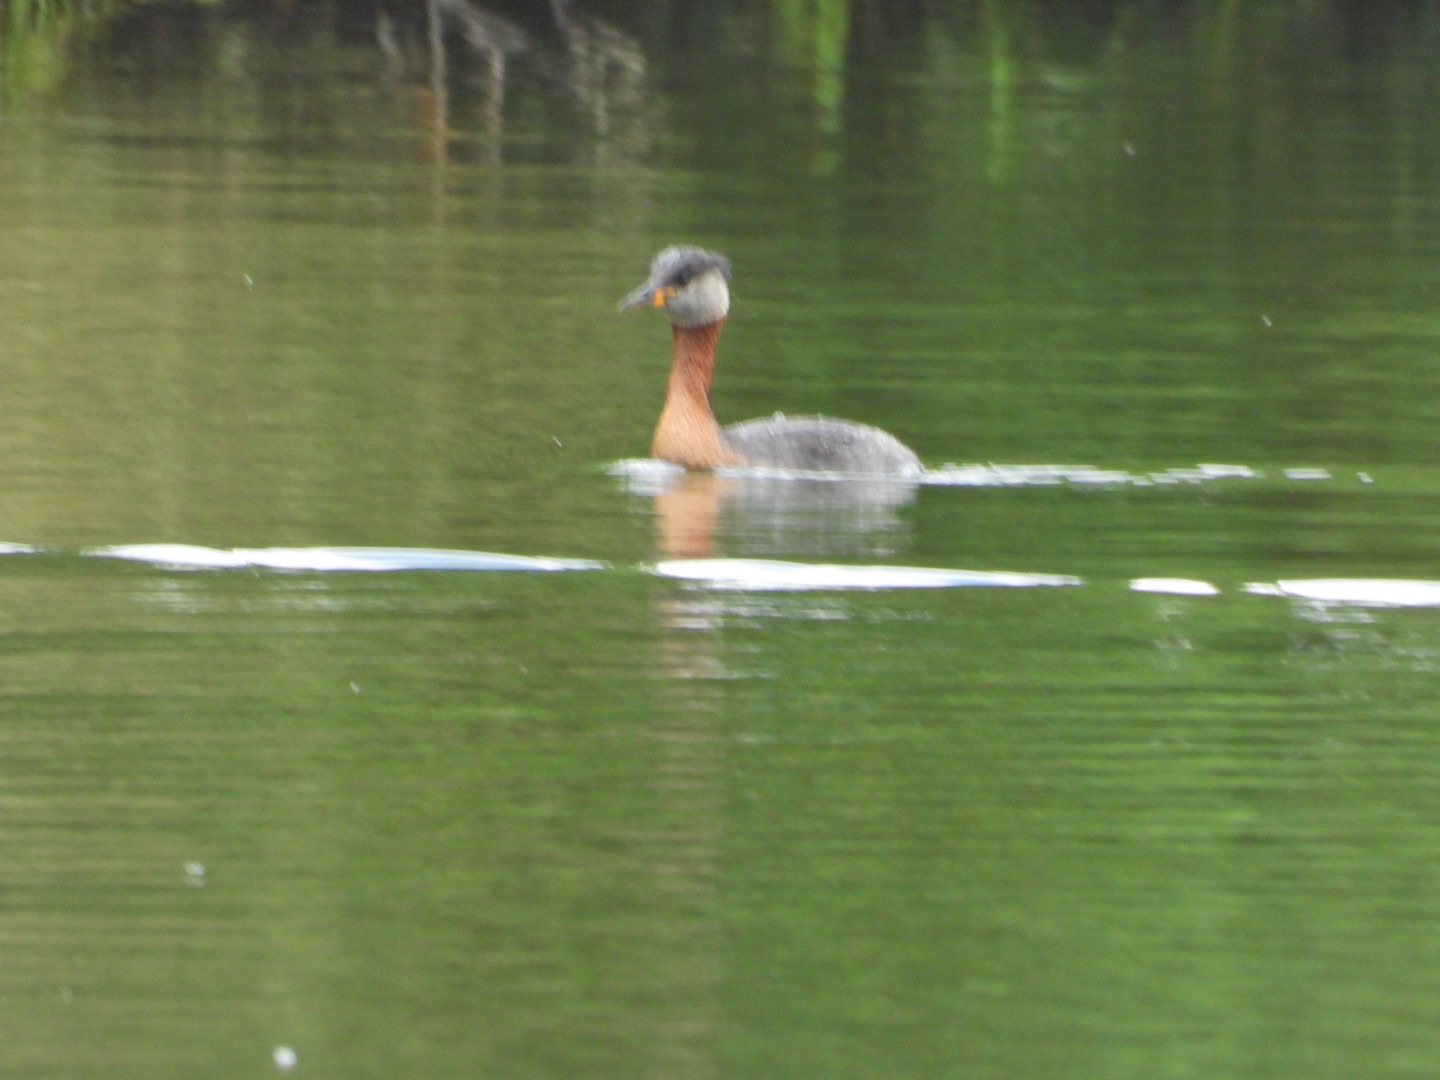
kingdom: Animalia
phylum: Chordata
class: Aves
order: Podicipediformes
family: Podicipedidae
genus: Podiceps
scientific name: Podiceps grisegena
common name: Gråstrubet lappedykker
